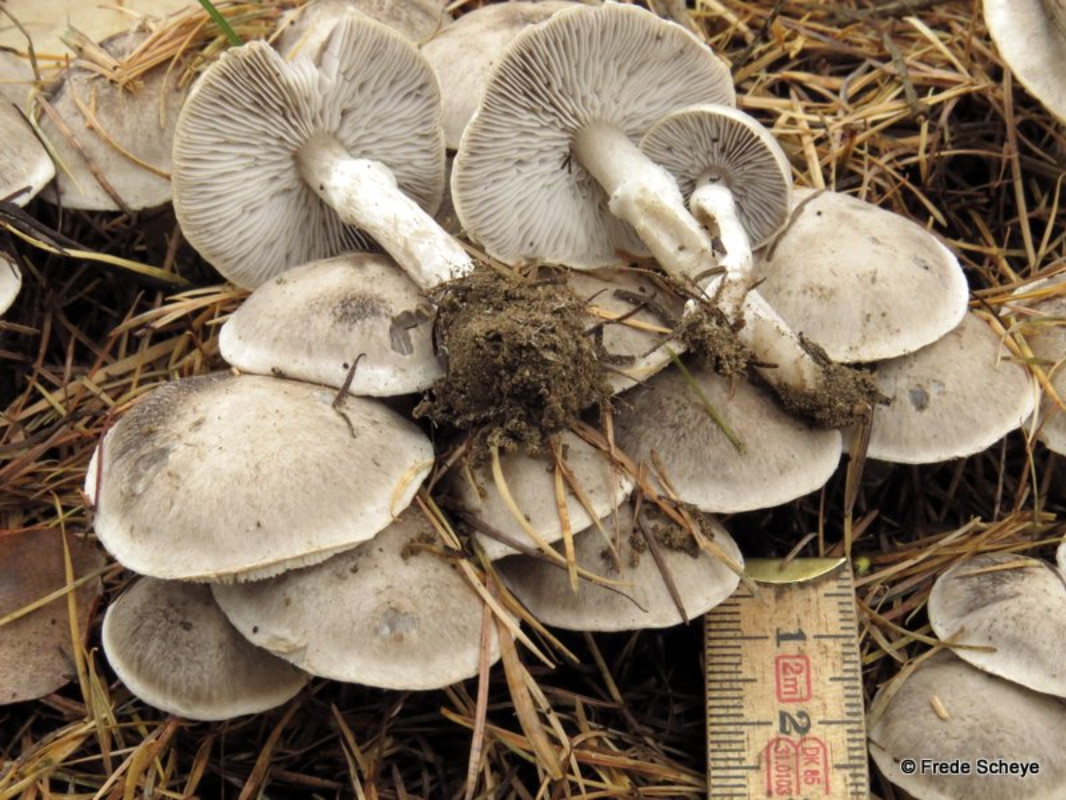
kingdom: Fungi
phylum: Basidiomycota
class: Agaricomycetes
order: Agaricales
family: Tricholomataceae
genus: Tricholoma
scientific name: Tricholoma cingulatum
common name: ring-ridderhat
